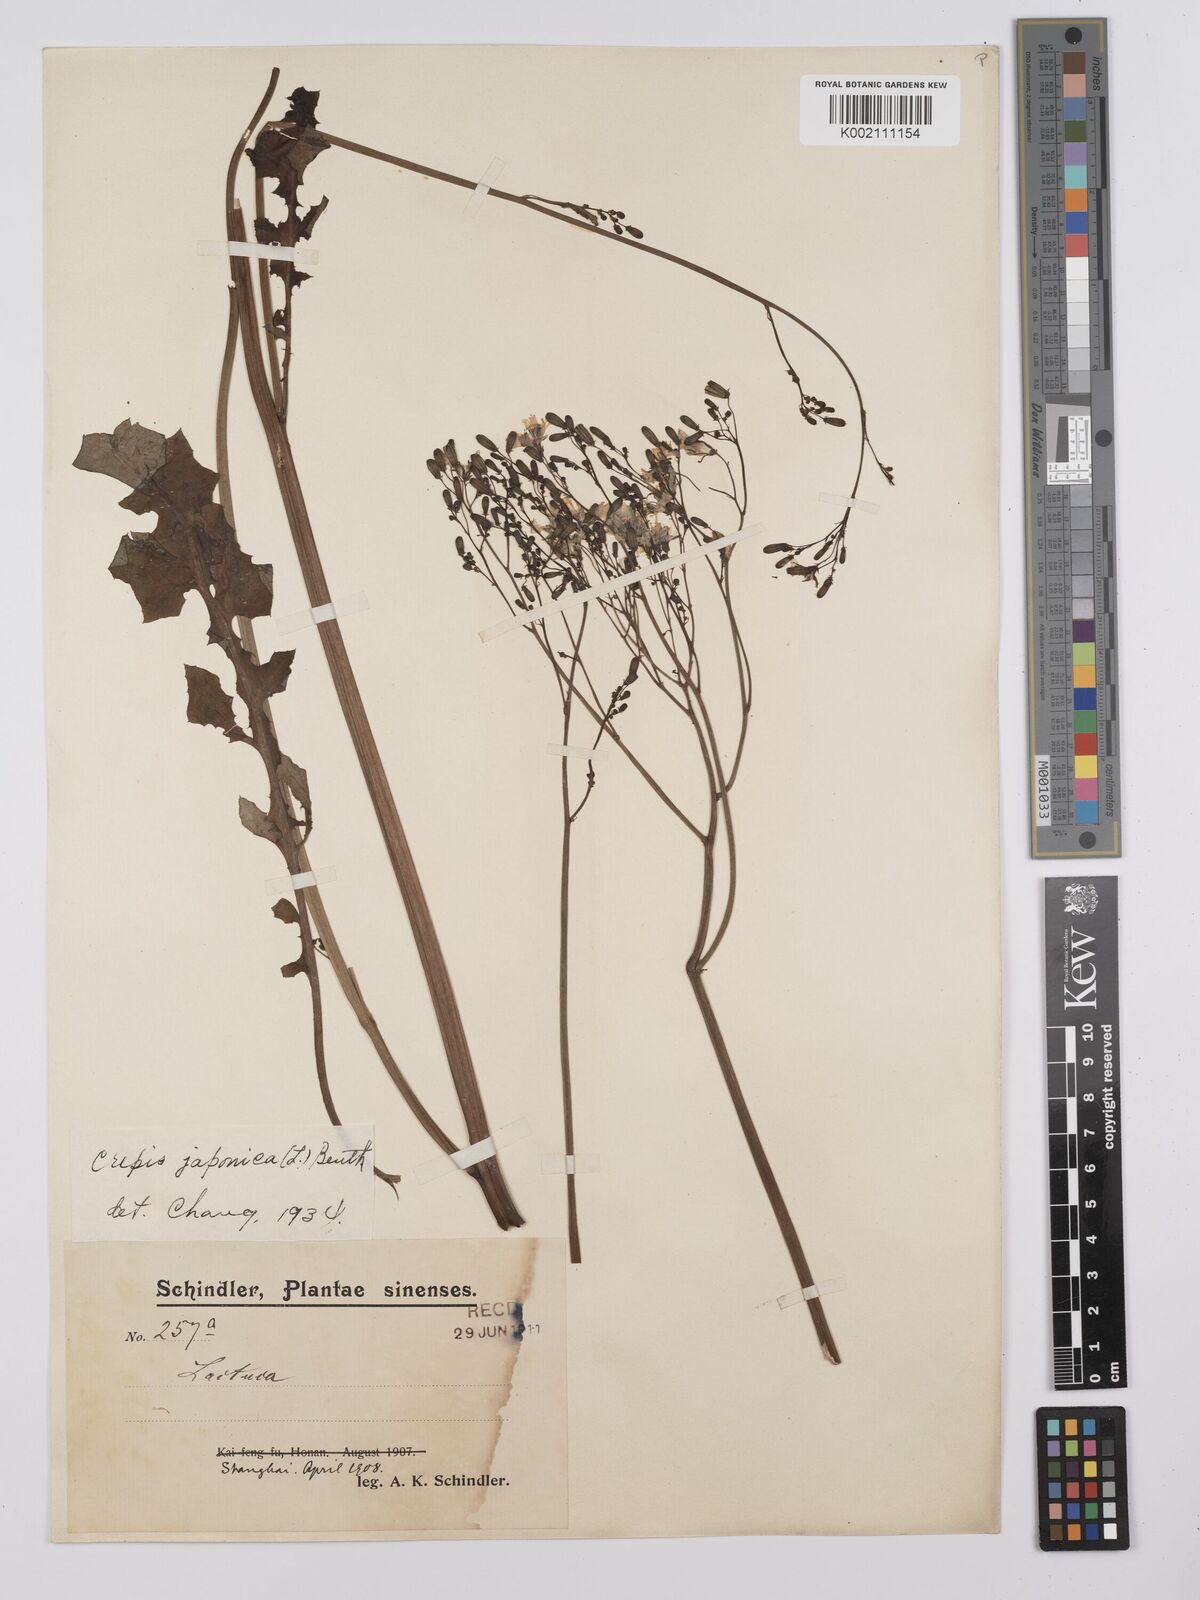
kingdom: Plantae
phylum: Tracheophyta
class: Magnoliopsida
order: Asterales
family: Asteraceae
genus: Youngia
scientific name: Youngia japonica
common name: Oriental false hawksbeard
